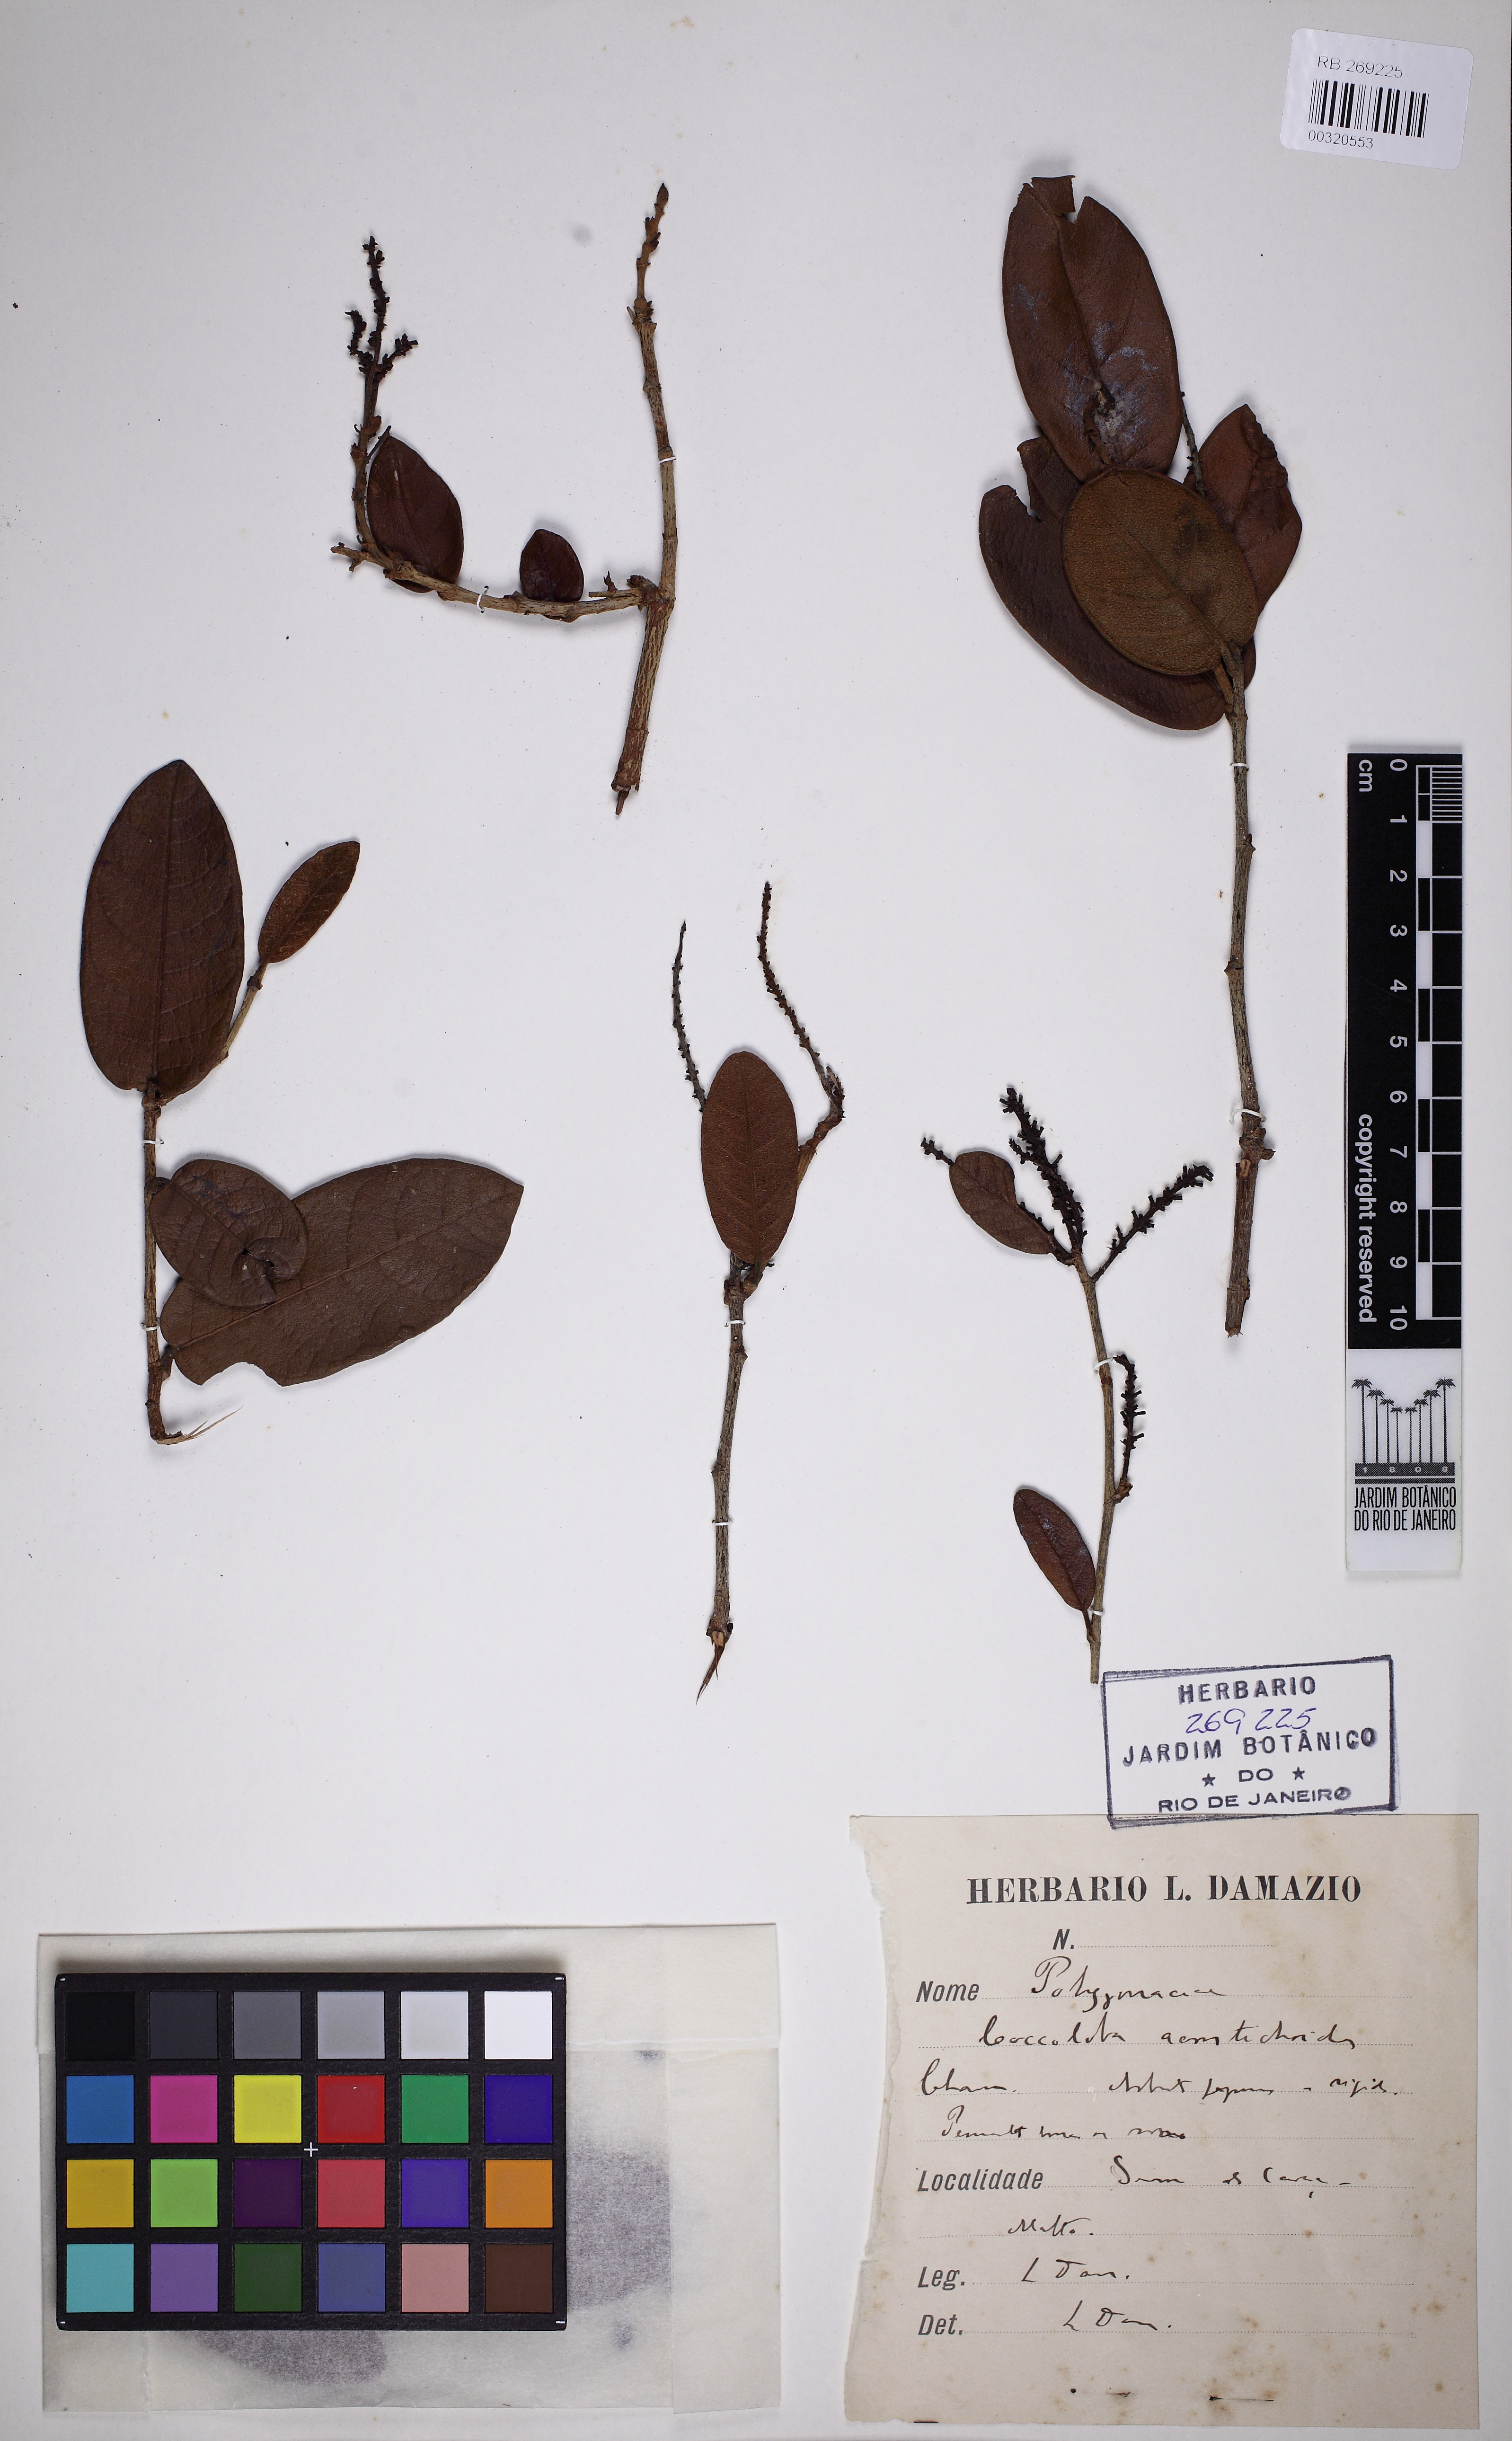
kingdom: Plantae
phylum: Tracheophyta
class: Magnoliopsida
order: Caryophyllales
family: Polygonaceae
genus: Coccoloba
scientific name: Coccoloba acrostichoides
